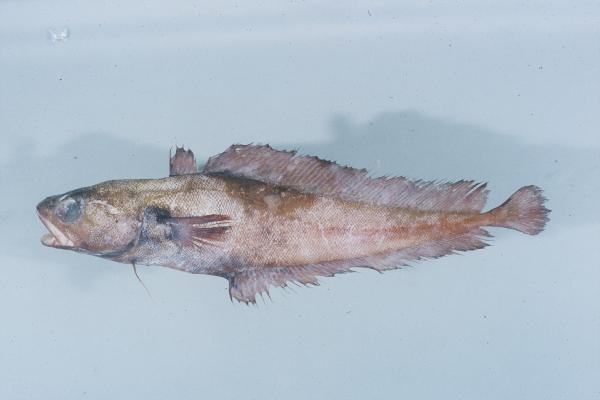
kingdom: Animalia
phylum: Chordata
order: Gadiformes
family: Moridae
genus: Physiculus
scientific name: Physiculus karrerae
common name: Deepwater cod
